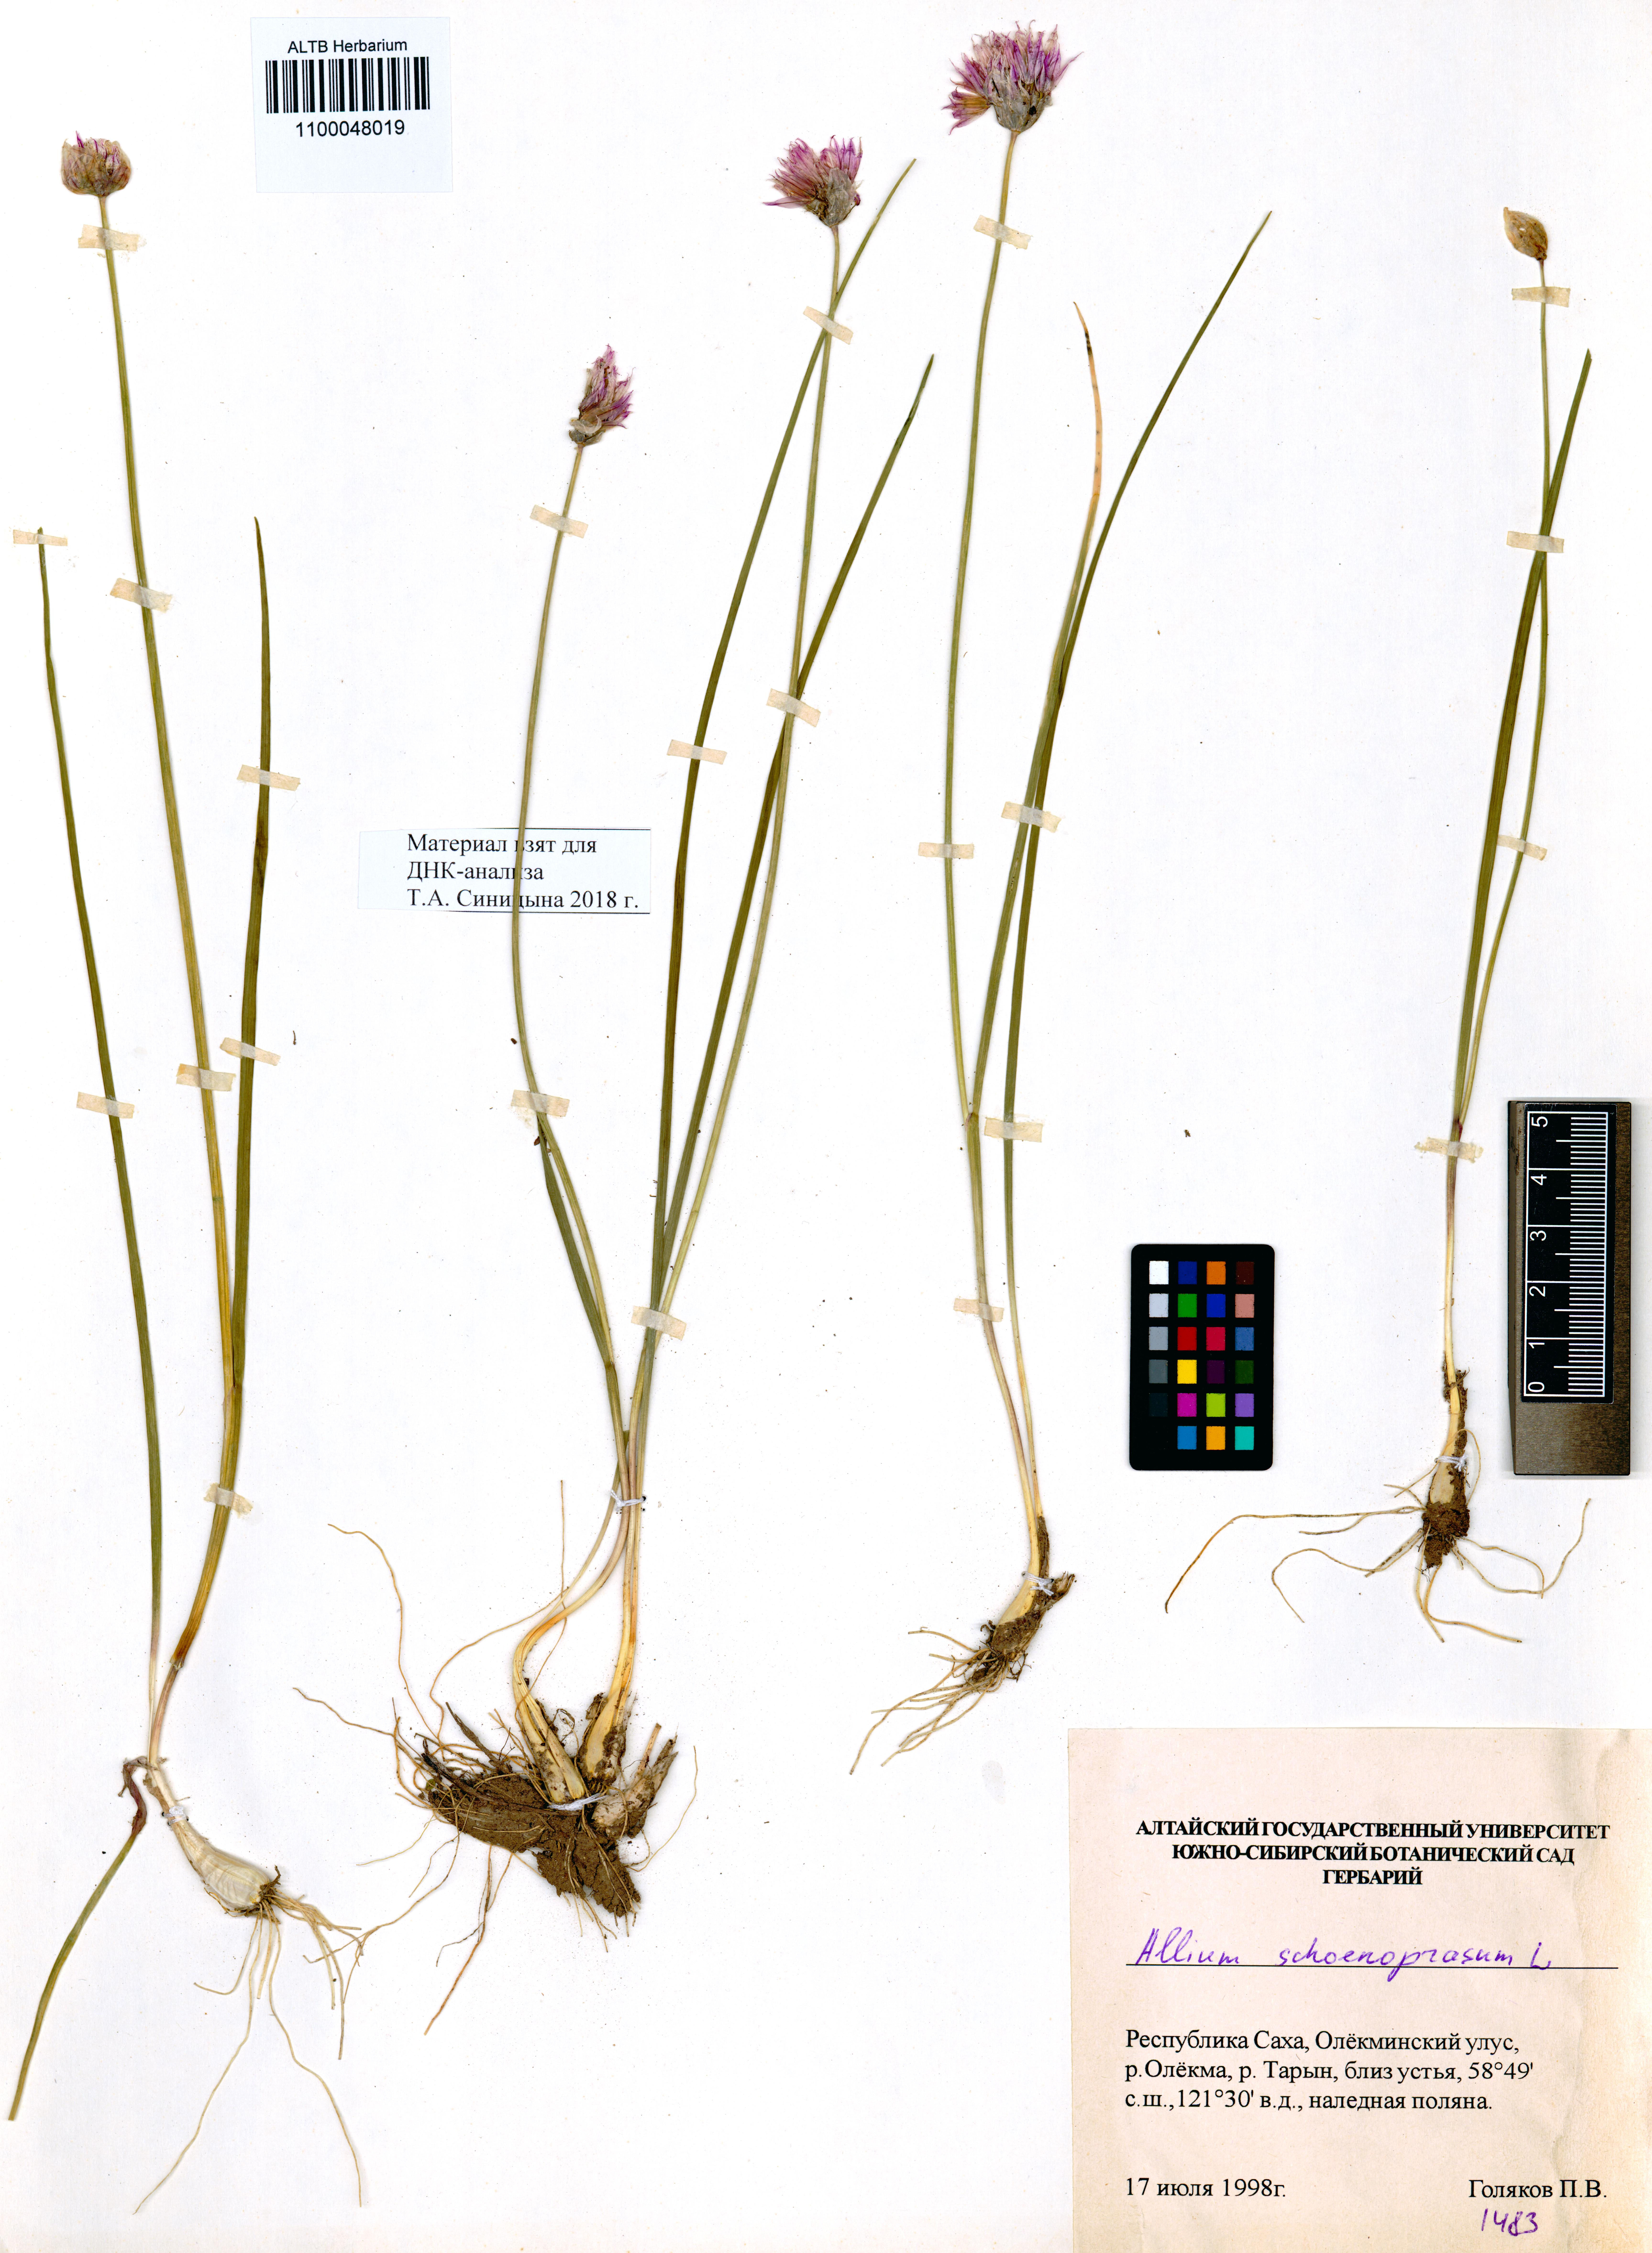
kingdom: Plantae
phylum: Tracheophyta
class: Liliopsida
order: Asparagales
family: Amaryllidaceae
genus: Allium
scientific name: Allium schoenoprasum
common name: Chives
